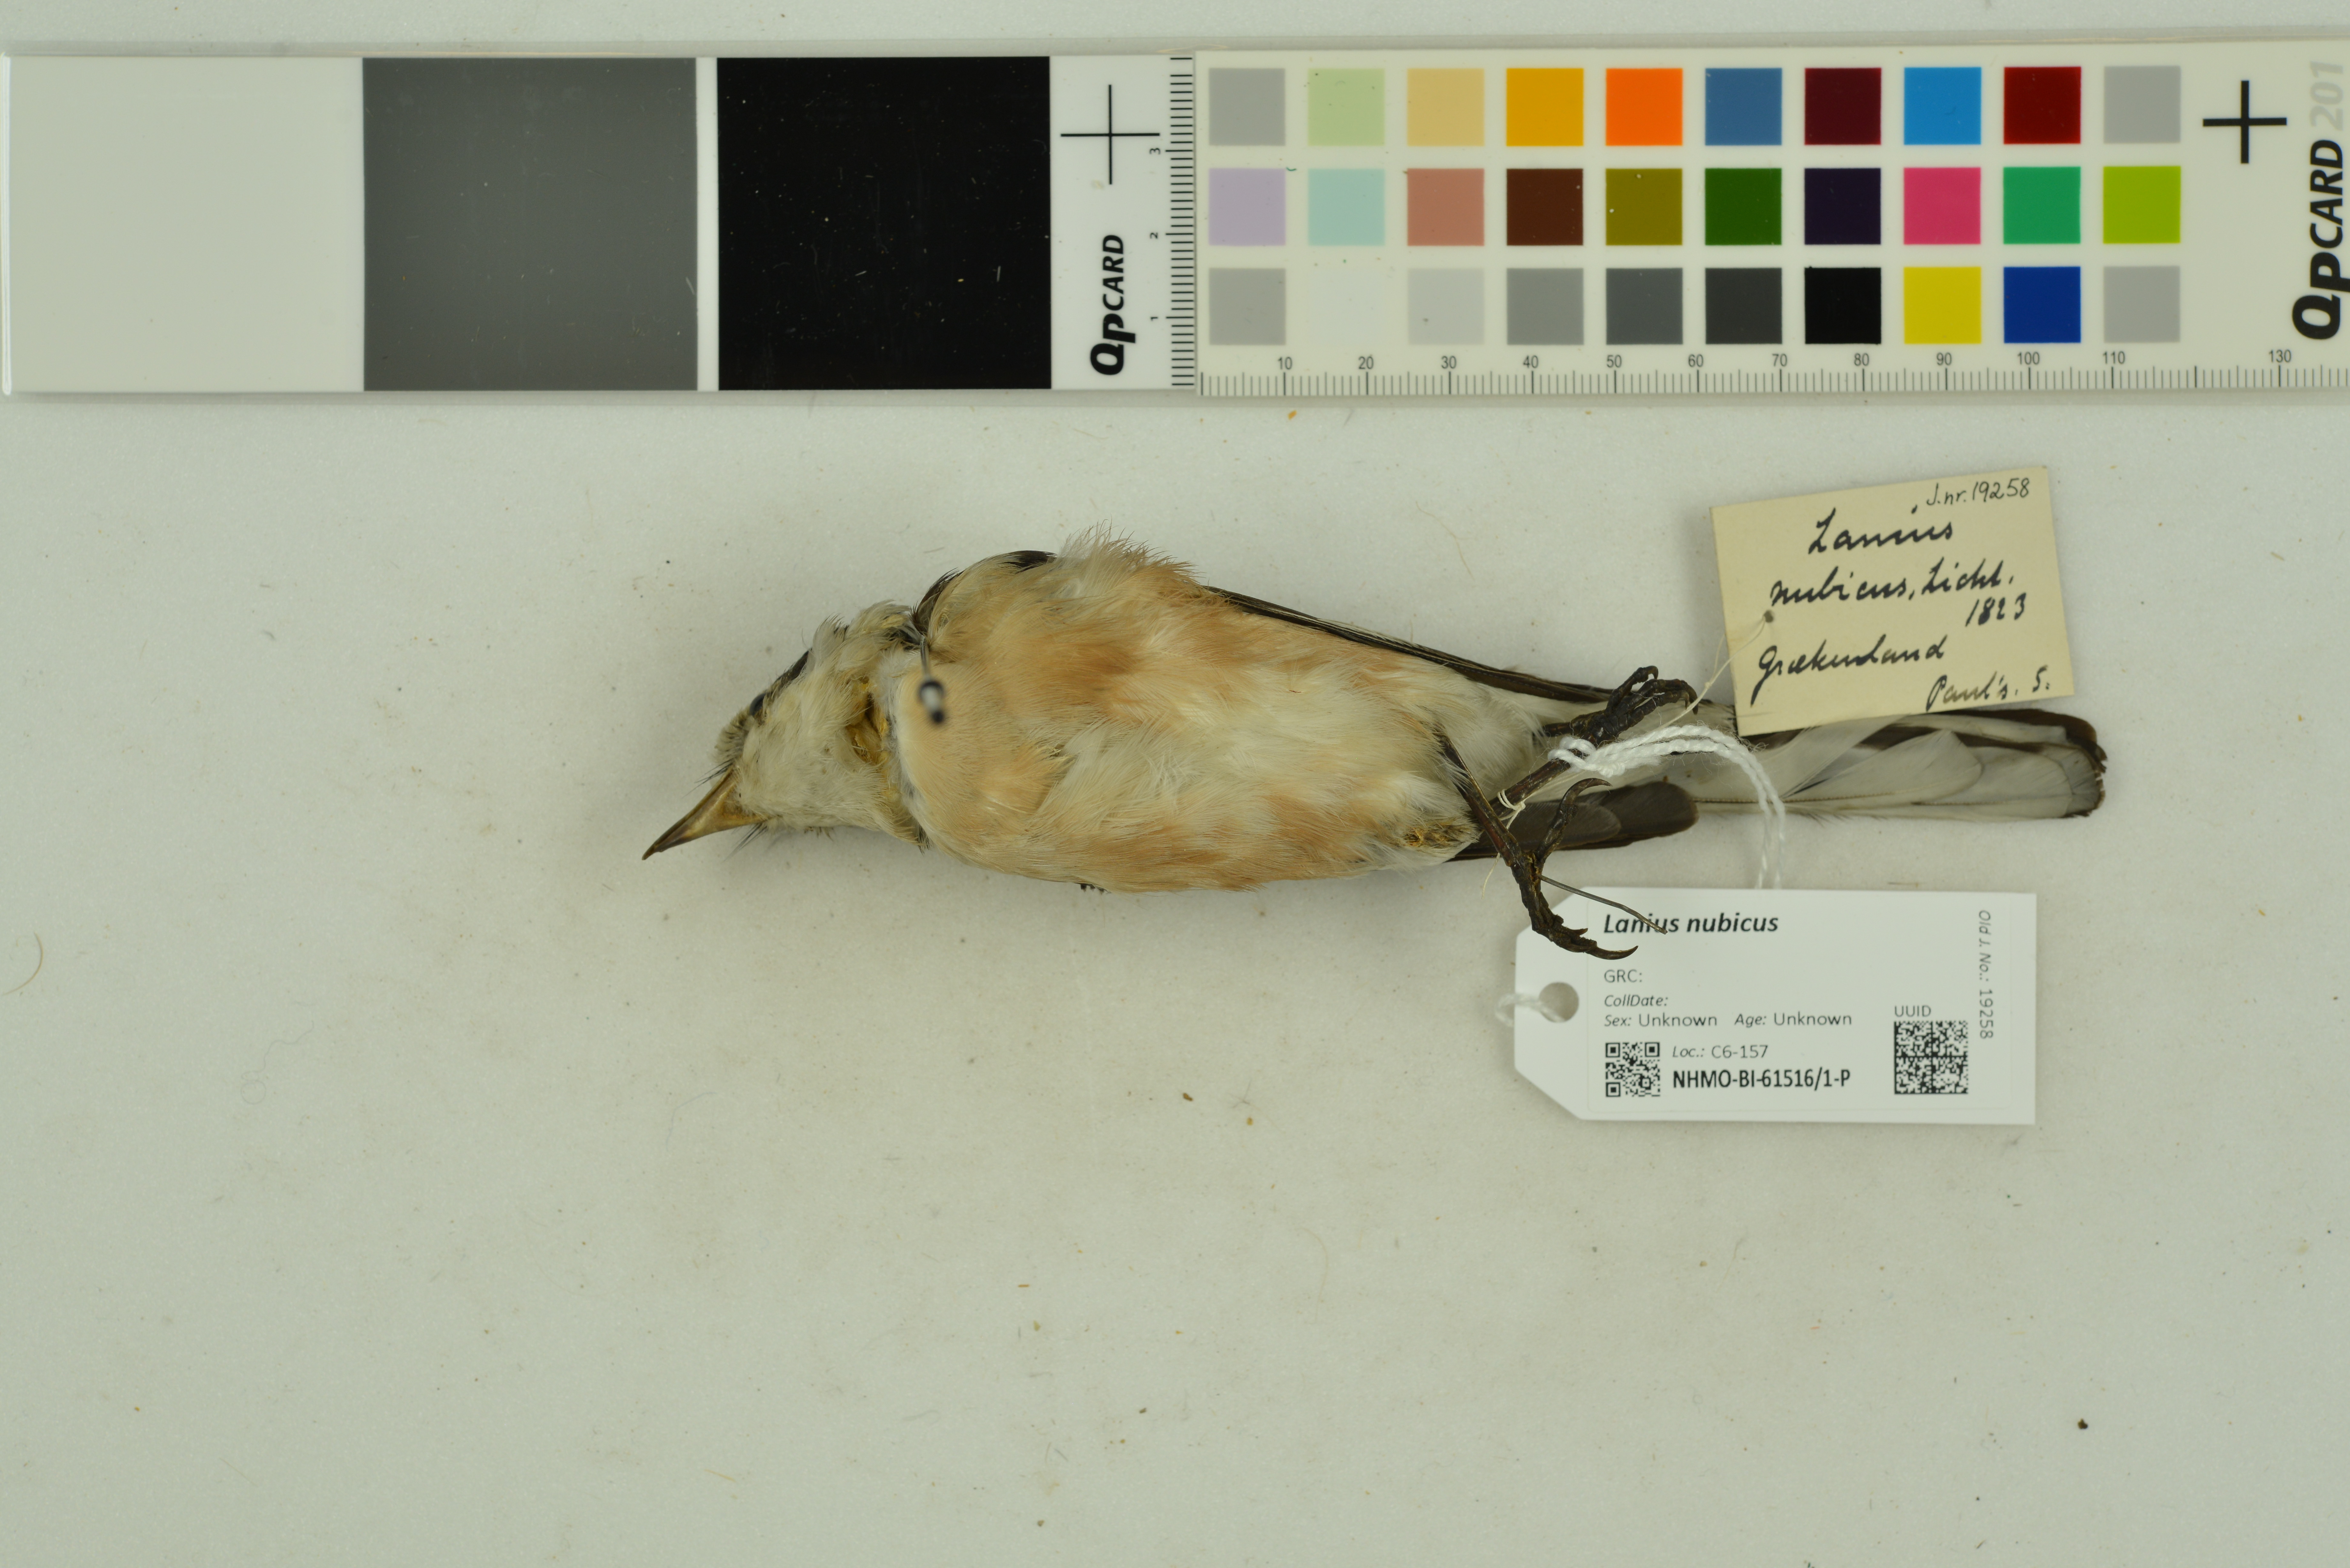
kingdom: Animalia
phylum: Chordata
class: Aves
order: Passeriformes
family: Laniidae
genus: Lanius
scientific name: Lanius nubicus
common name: Masked shrike
